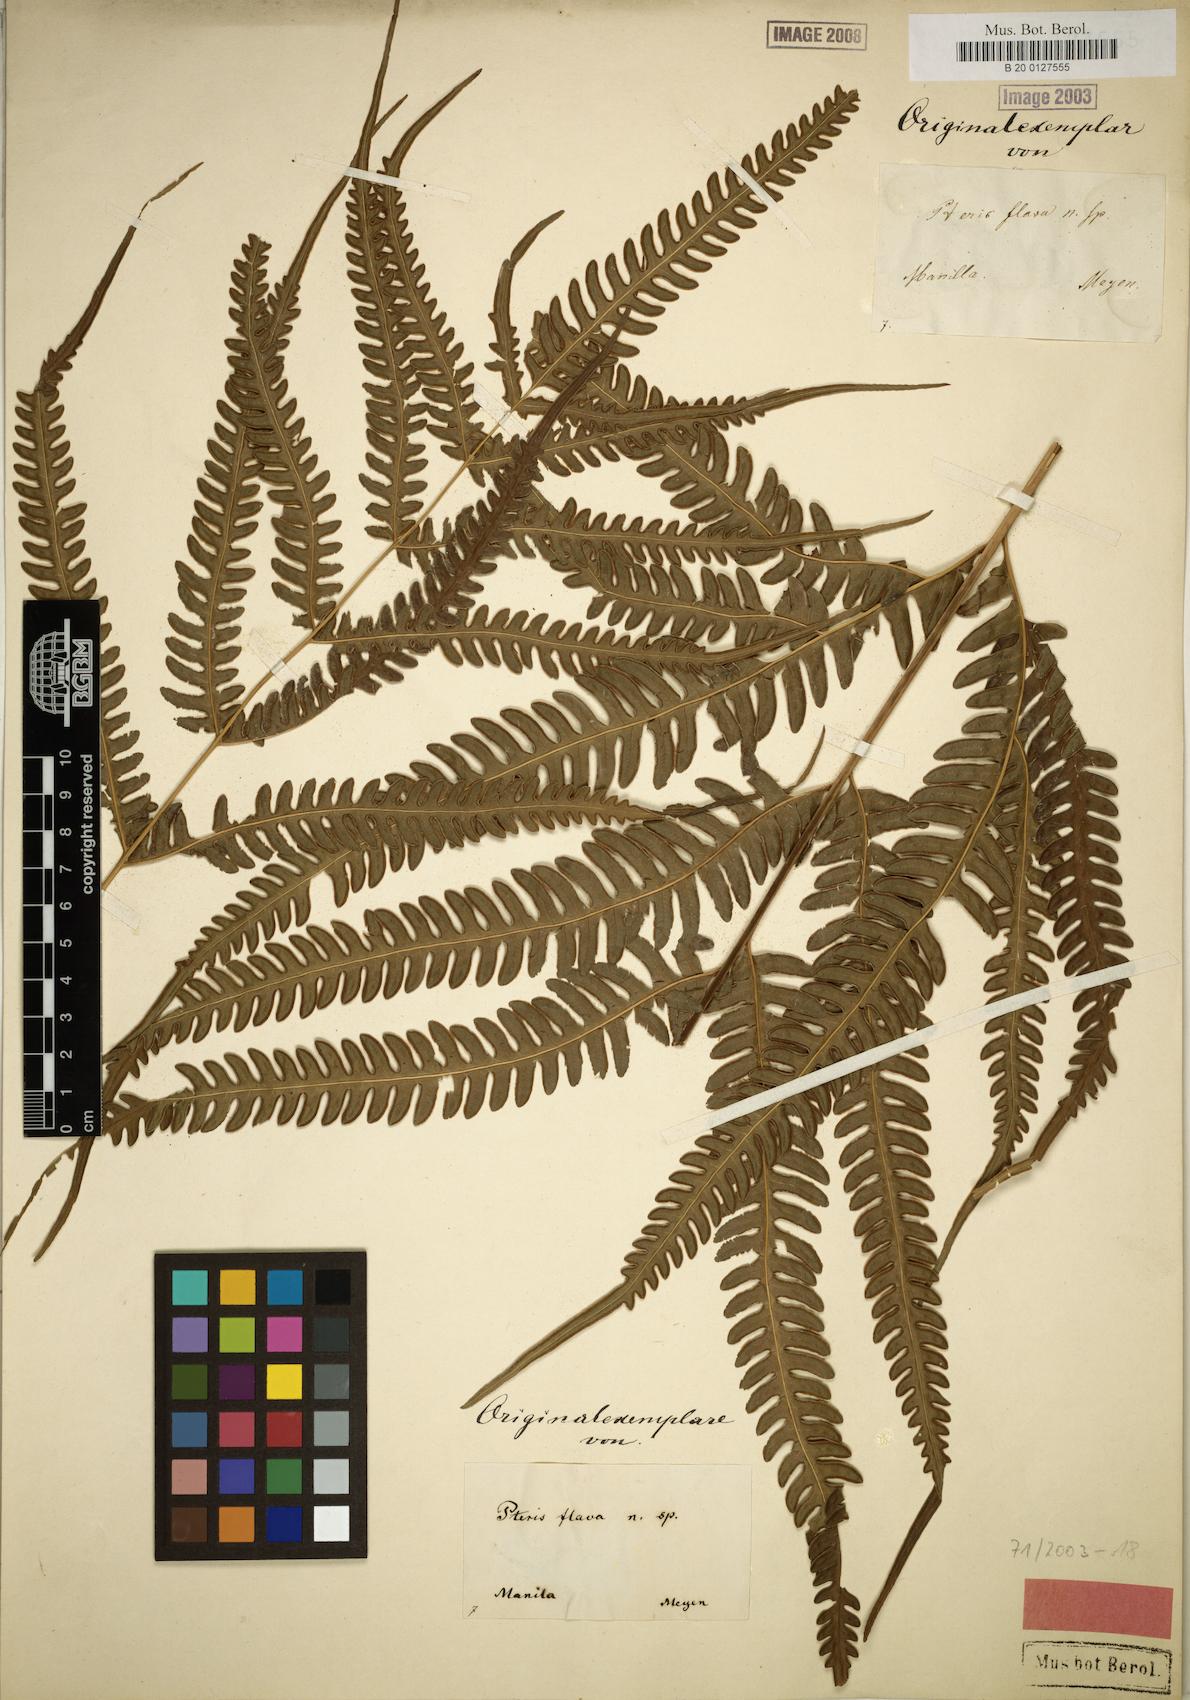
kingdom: Plantae
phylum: Tracheophyta
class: Polypodiopsida
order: Polypodiales
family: Pteridaceae
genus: Pteris
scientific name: Pteris glaucovirens
